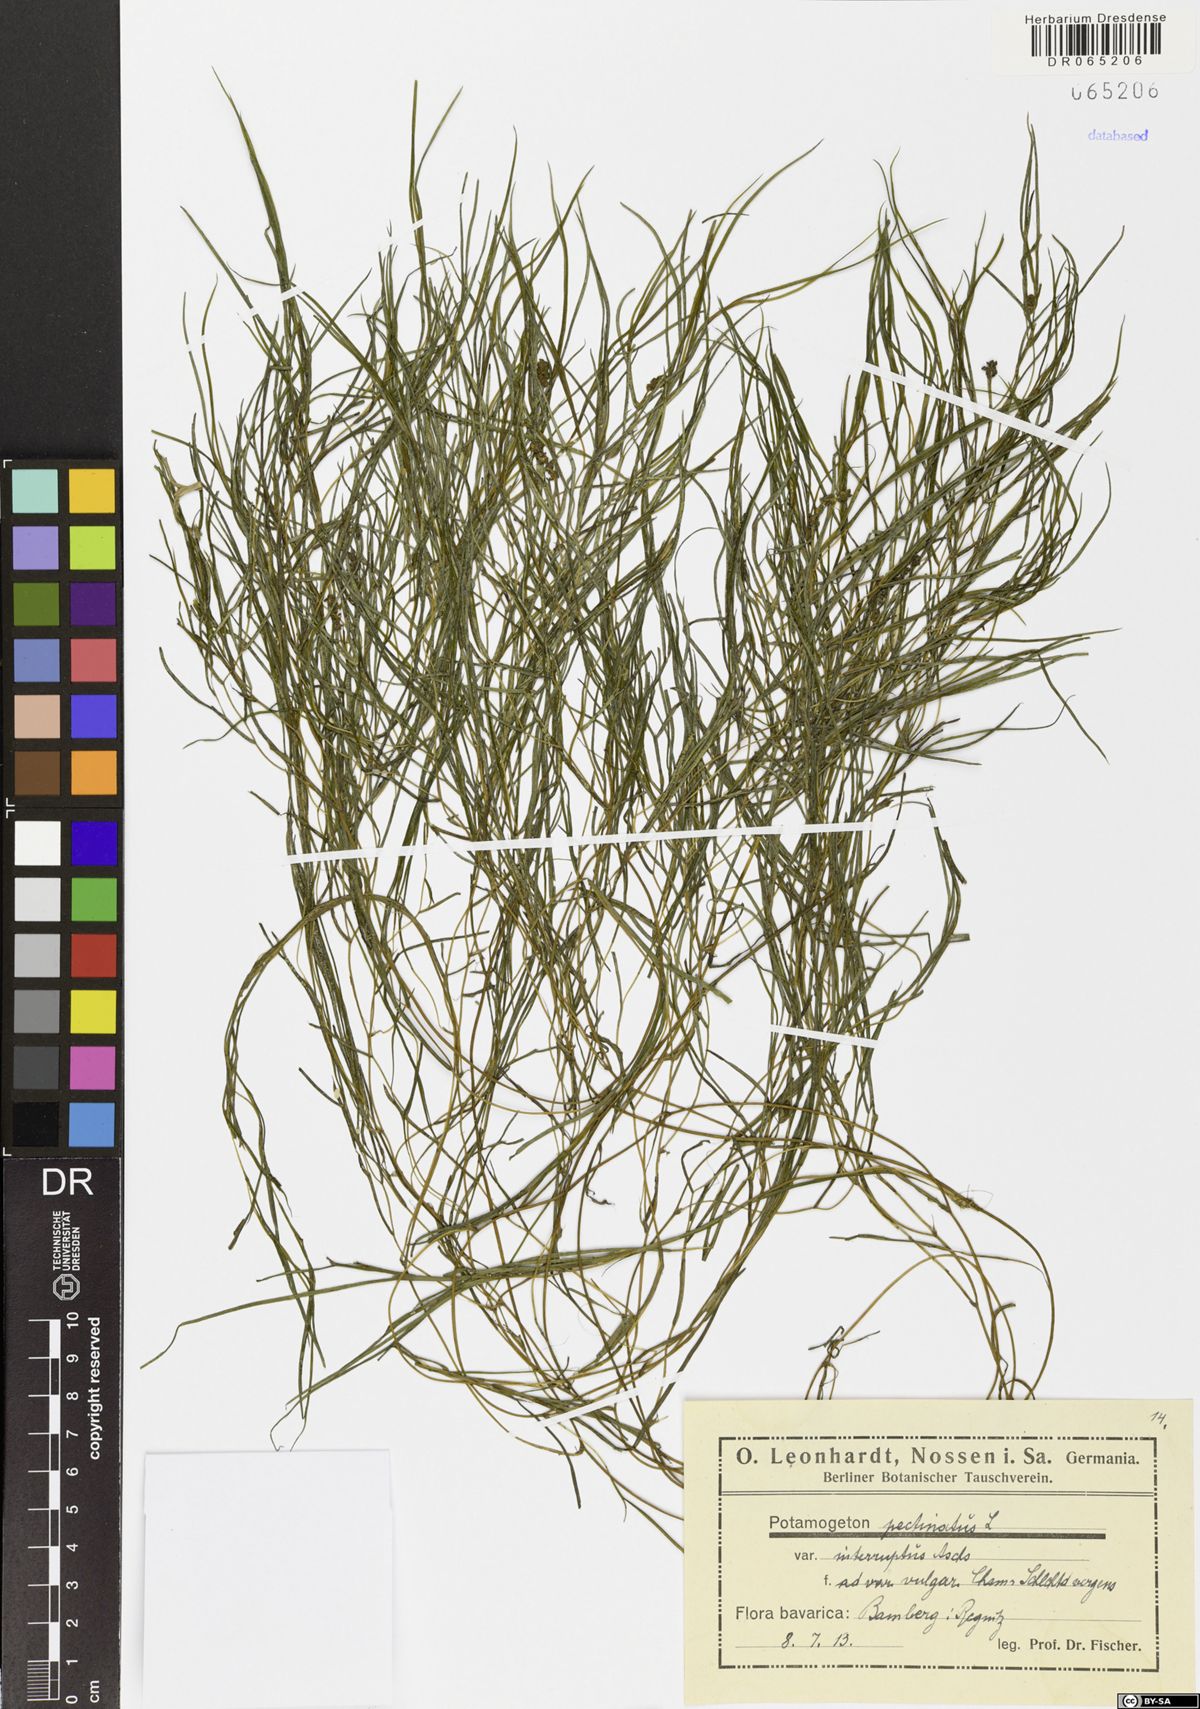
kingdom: Plantae
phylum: Tracheophyta
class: Liliopsida
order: Alismatales
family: Potamogetonaceae
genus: Stuckenia
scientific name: Stuckenia pectinata
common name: Sago pondweed
